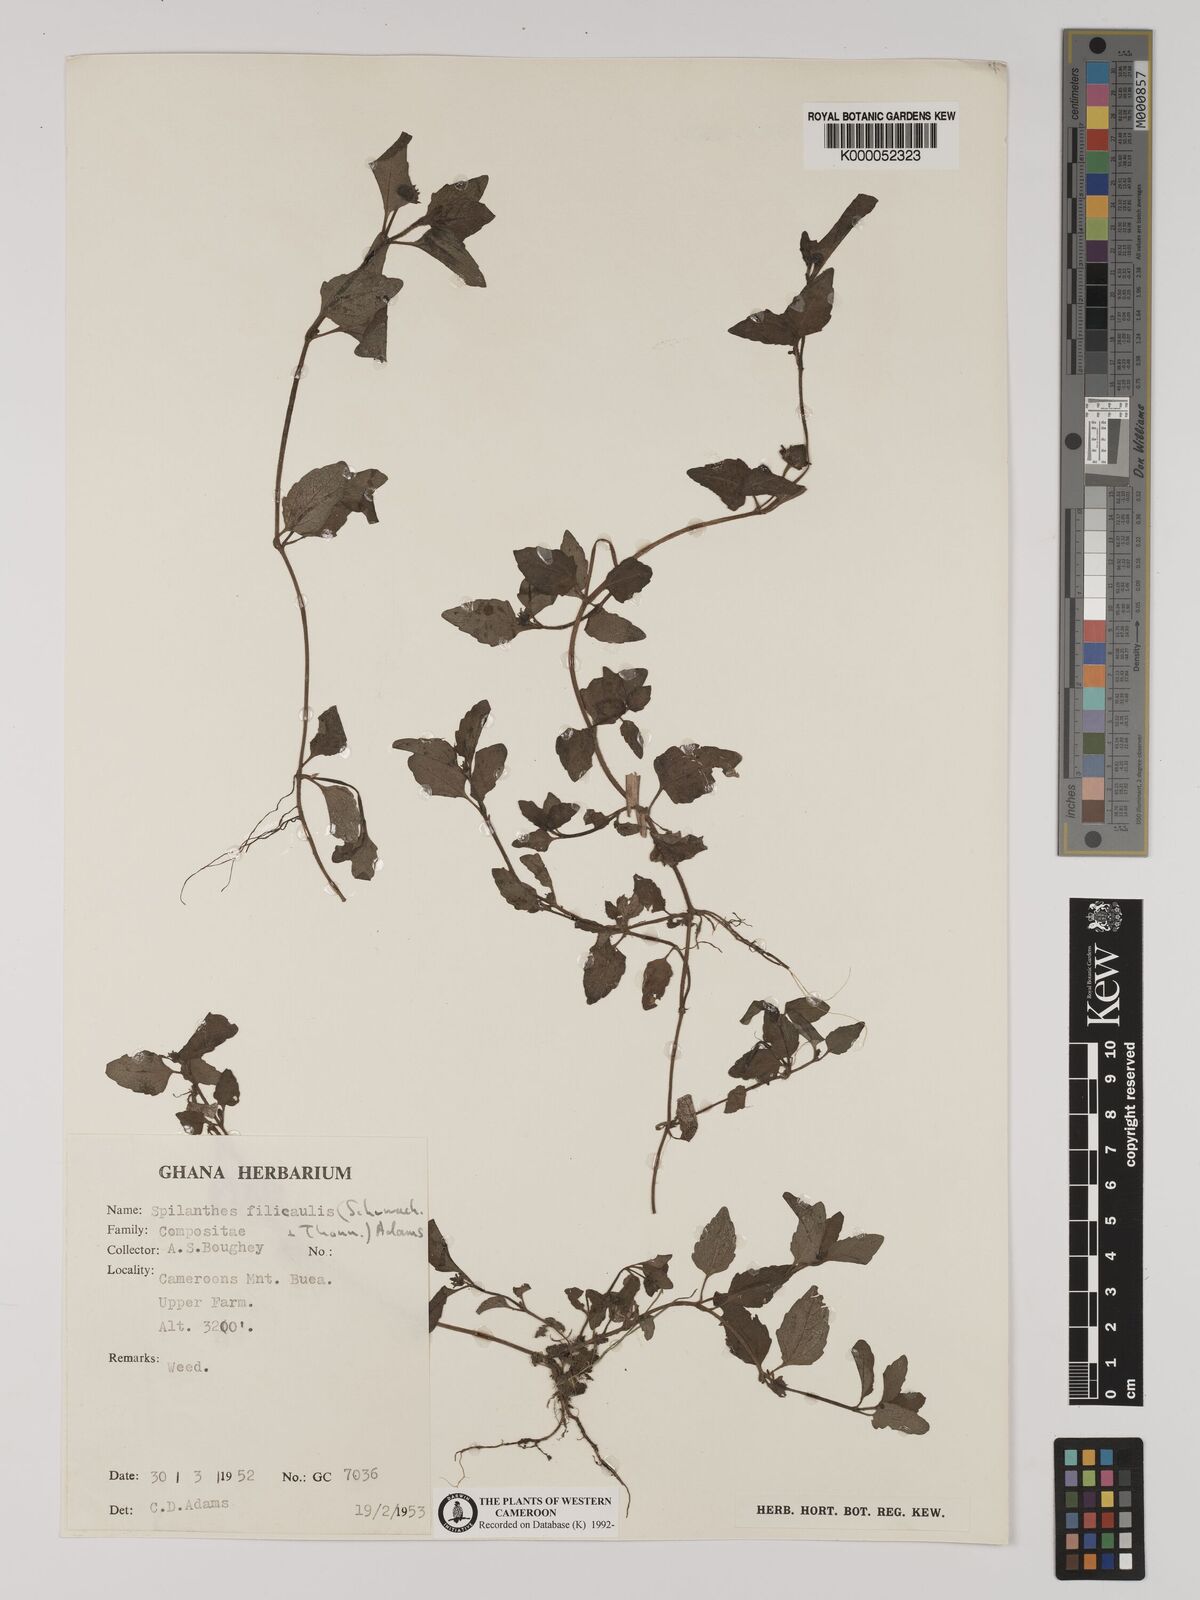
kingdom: Plantae
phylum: Tracheophyta
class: Magnoliopsida
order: Asterales
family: Asteraceae
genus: Acmella
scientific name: Acmella caulirhiza
